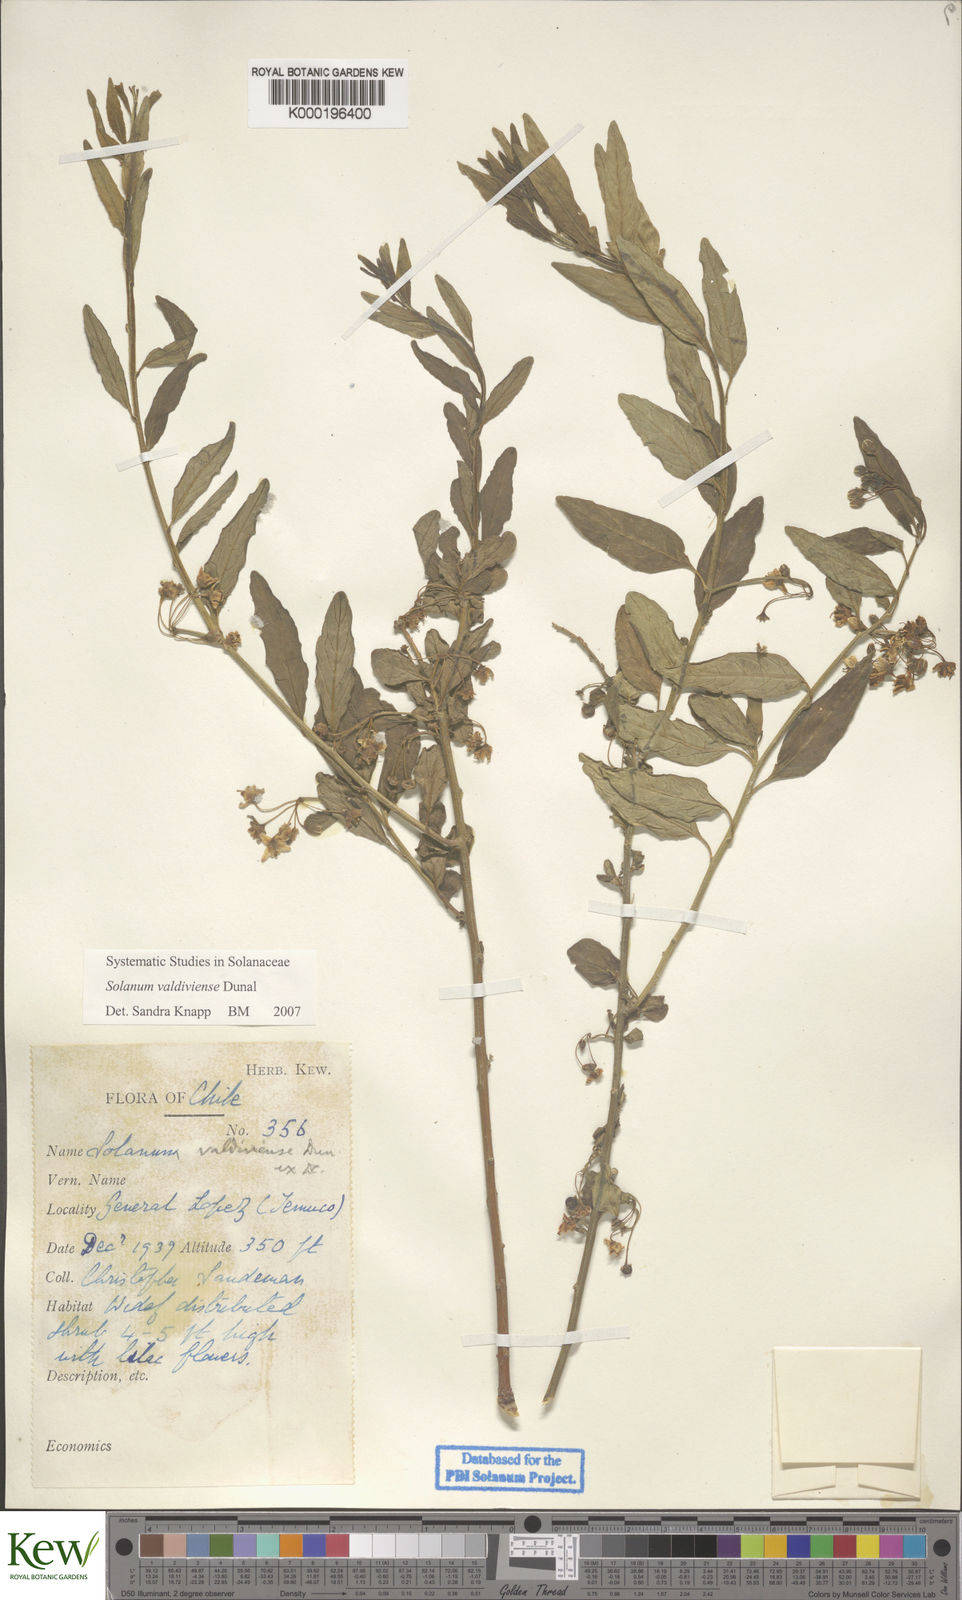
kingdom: Plantae
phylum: Tracheophyta
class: Magnoliopsida
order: Solanales
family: Solanaceae
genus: Solanum
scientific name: Solanum valdiviense
